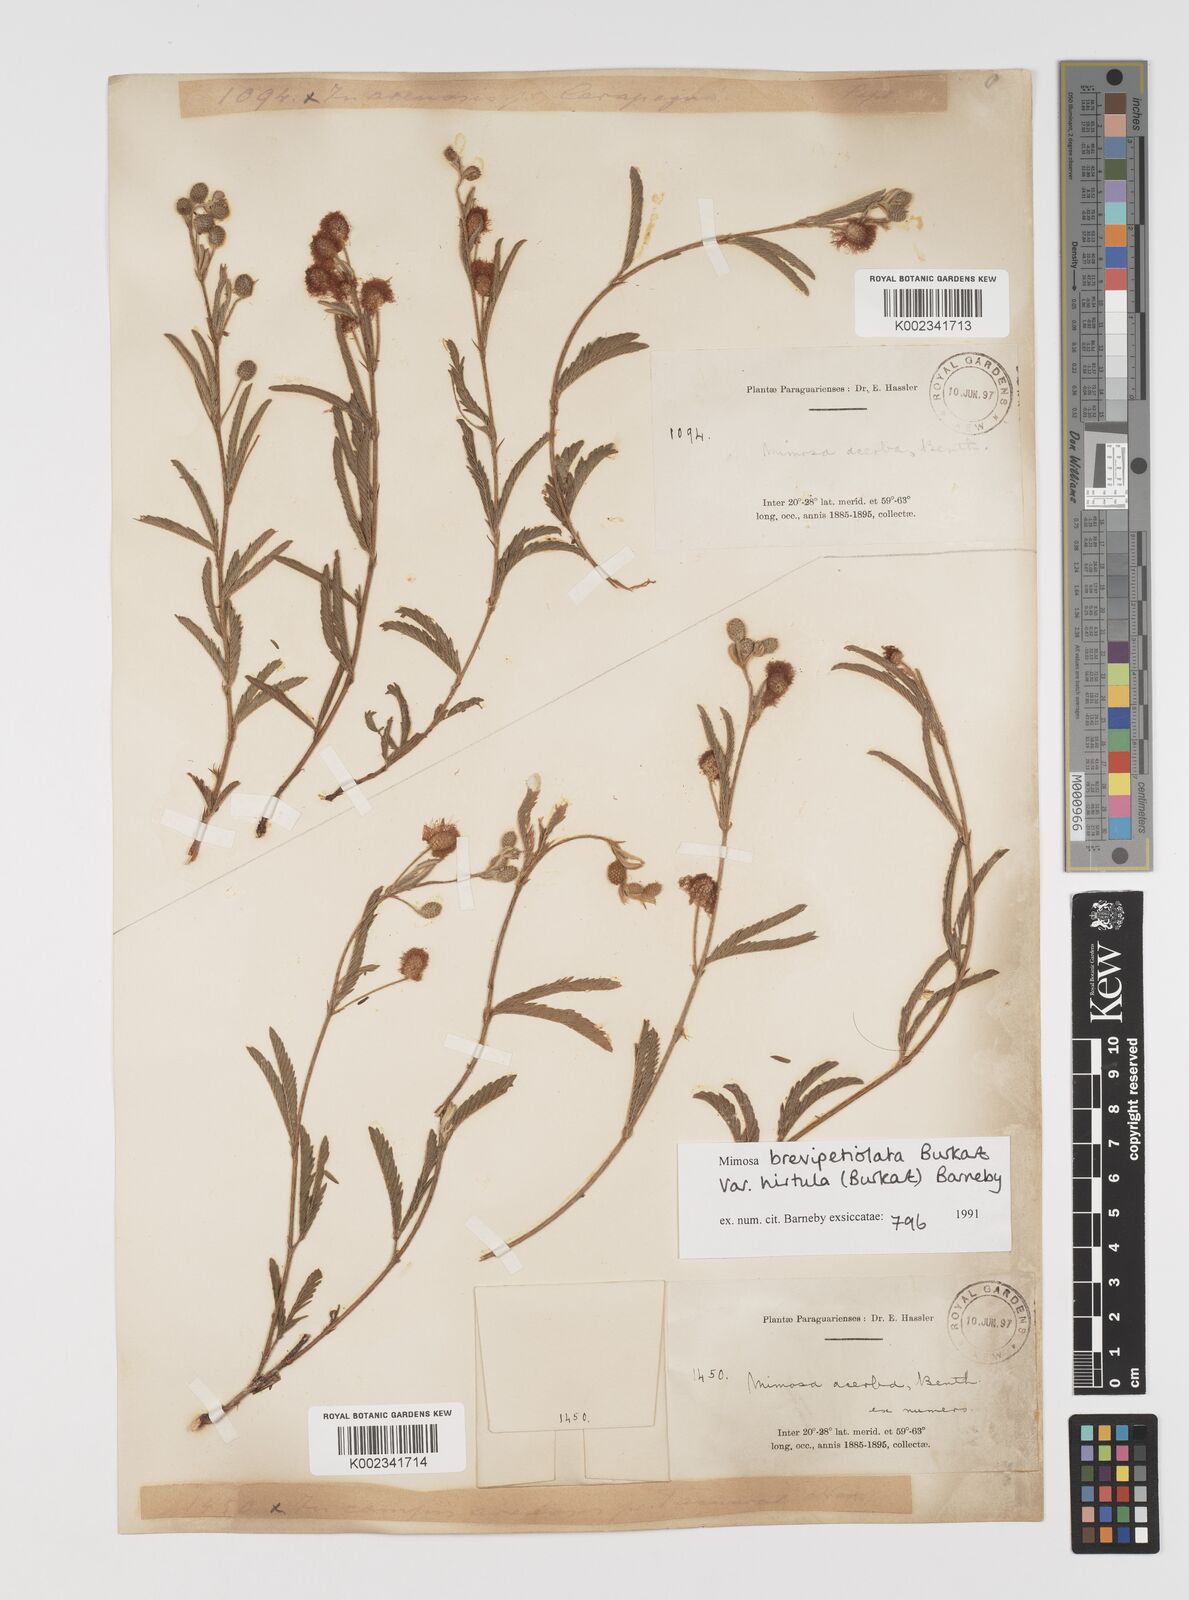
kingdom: Plantae
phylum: Tracheophyta
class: Magnoliopsida
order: Fabales
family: Fabaceae
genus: Mimosa
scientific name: Mimosa brevipetiolata
